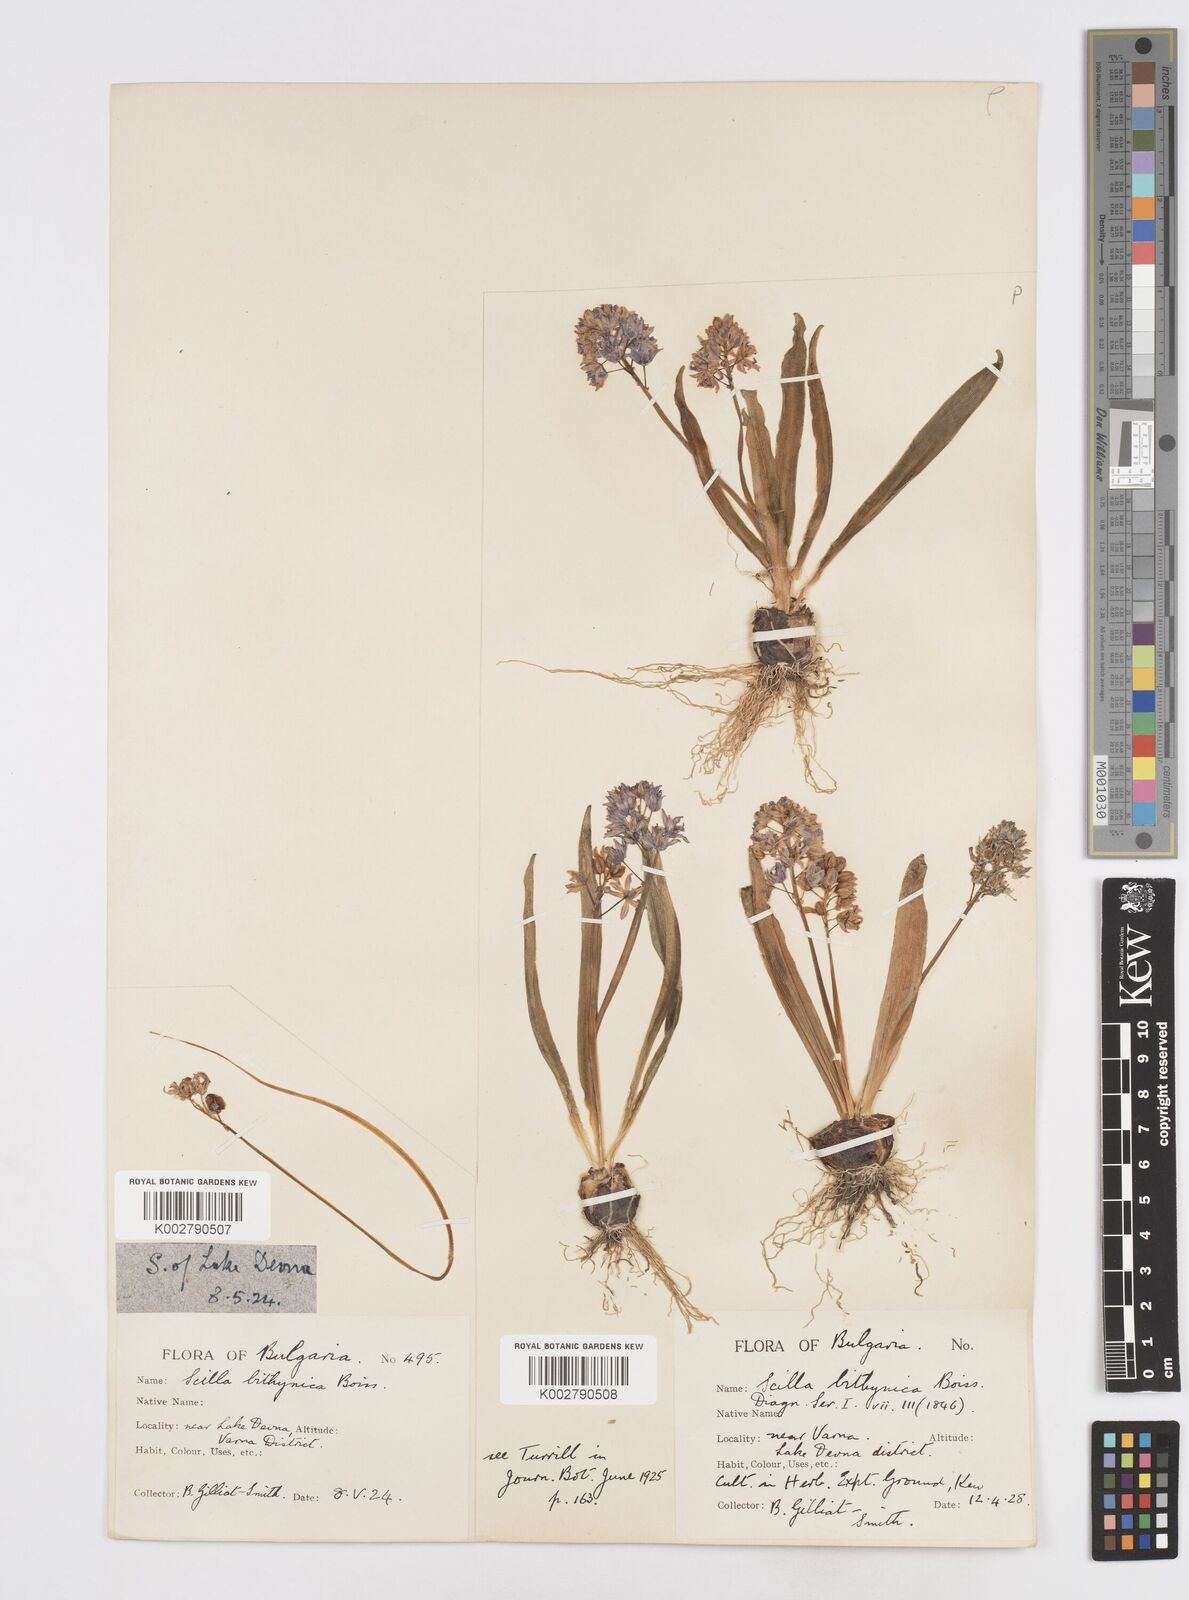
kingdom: Plantae
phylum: Tracheophyta
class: Liliopsida
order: Asparagales
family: Asparagaceae
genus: Scilla
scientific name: Scilla bithynica
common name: Turkish squill
